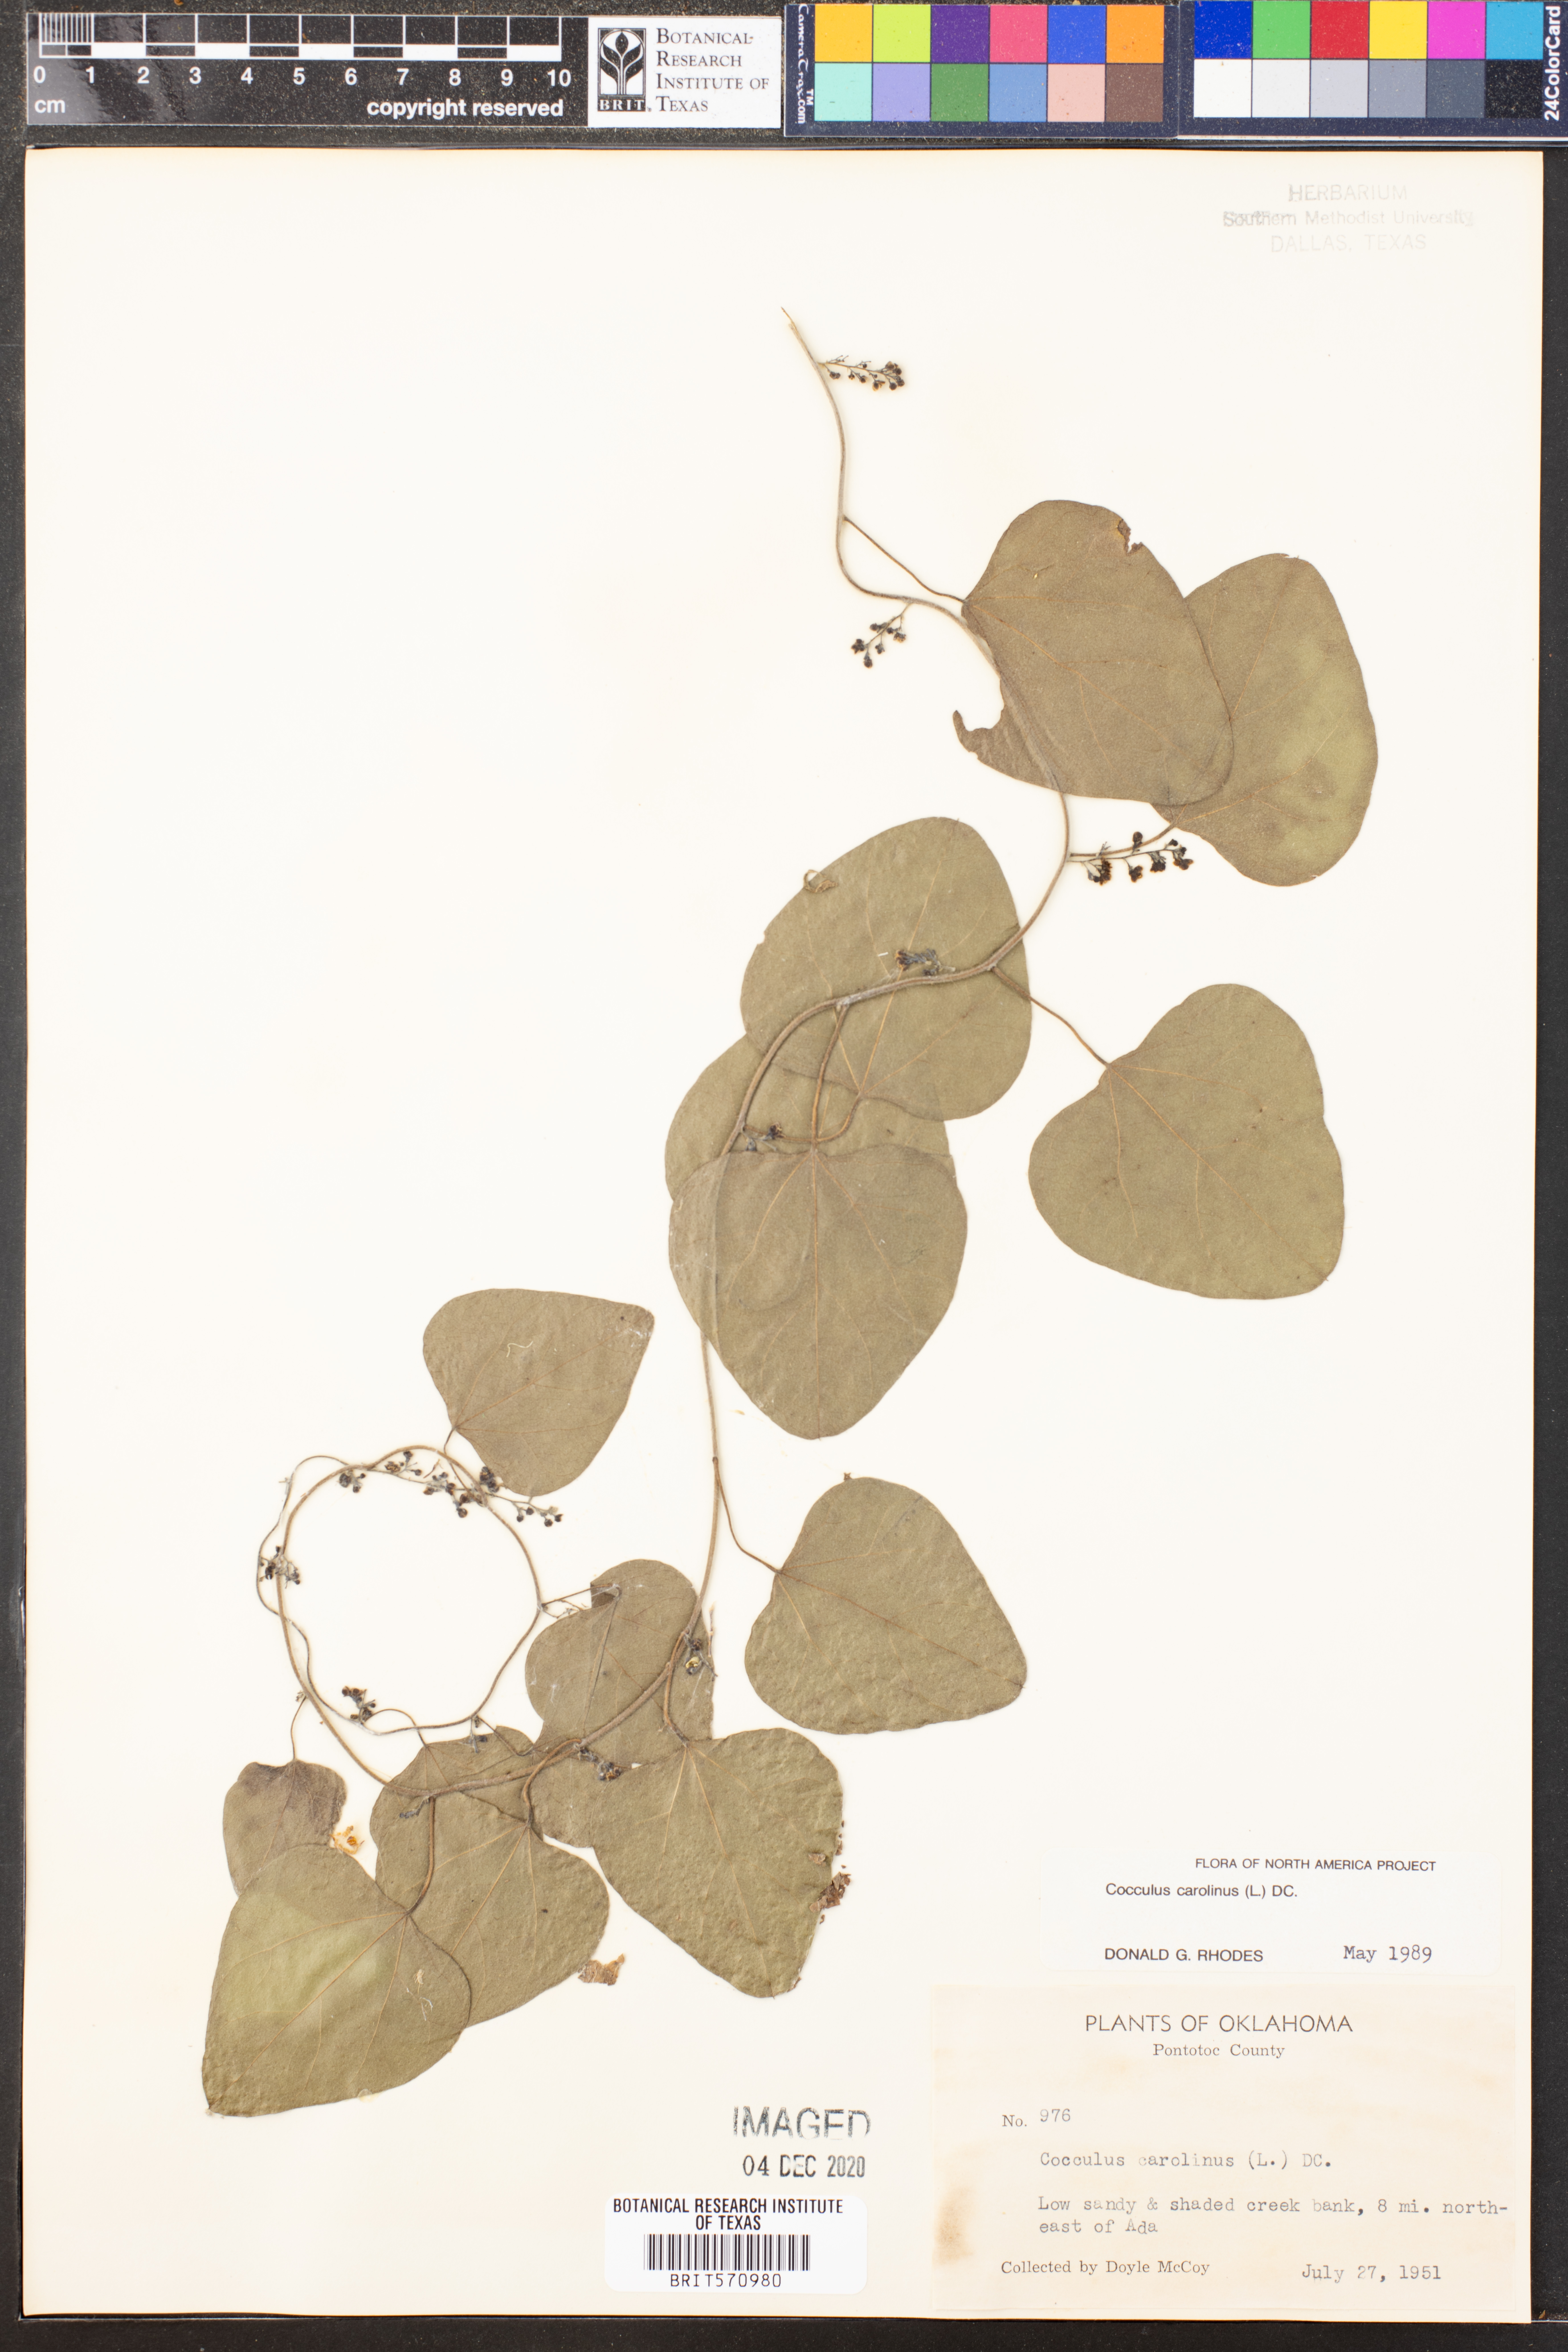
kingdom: Plantae
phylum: Tracheophyta
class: Magnoliopsida
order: Ranunculales
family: Menispermaceae
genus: Cocculus
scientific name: Cocculus carolinus
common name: Carolina moonseed
